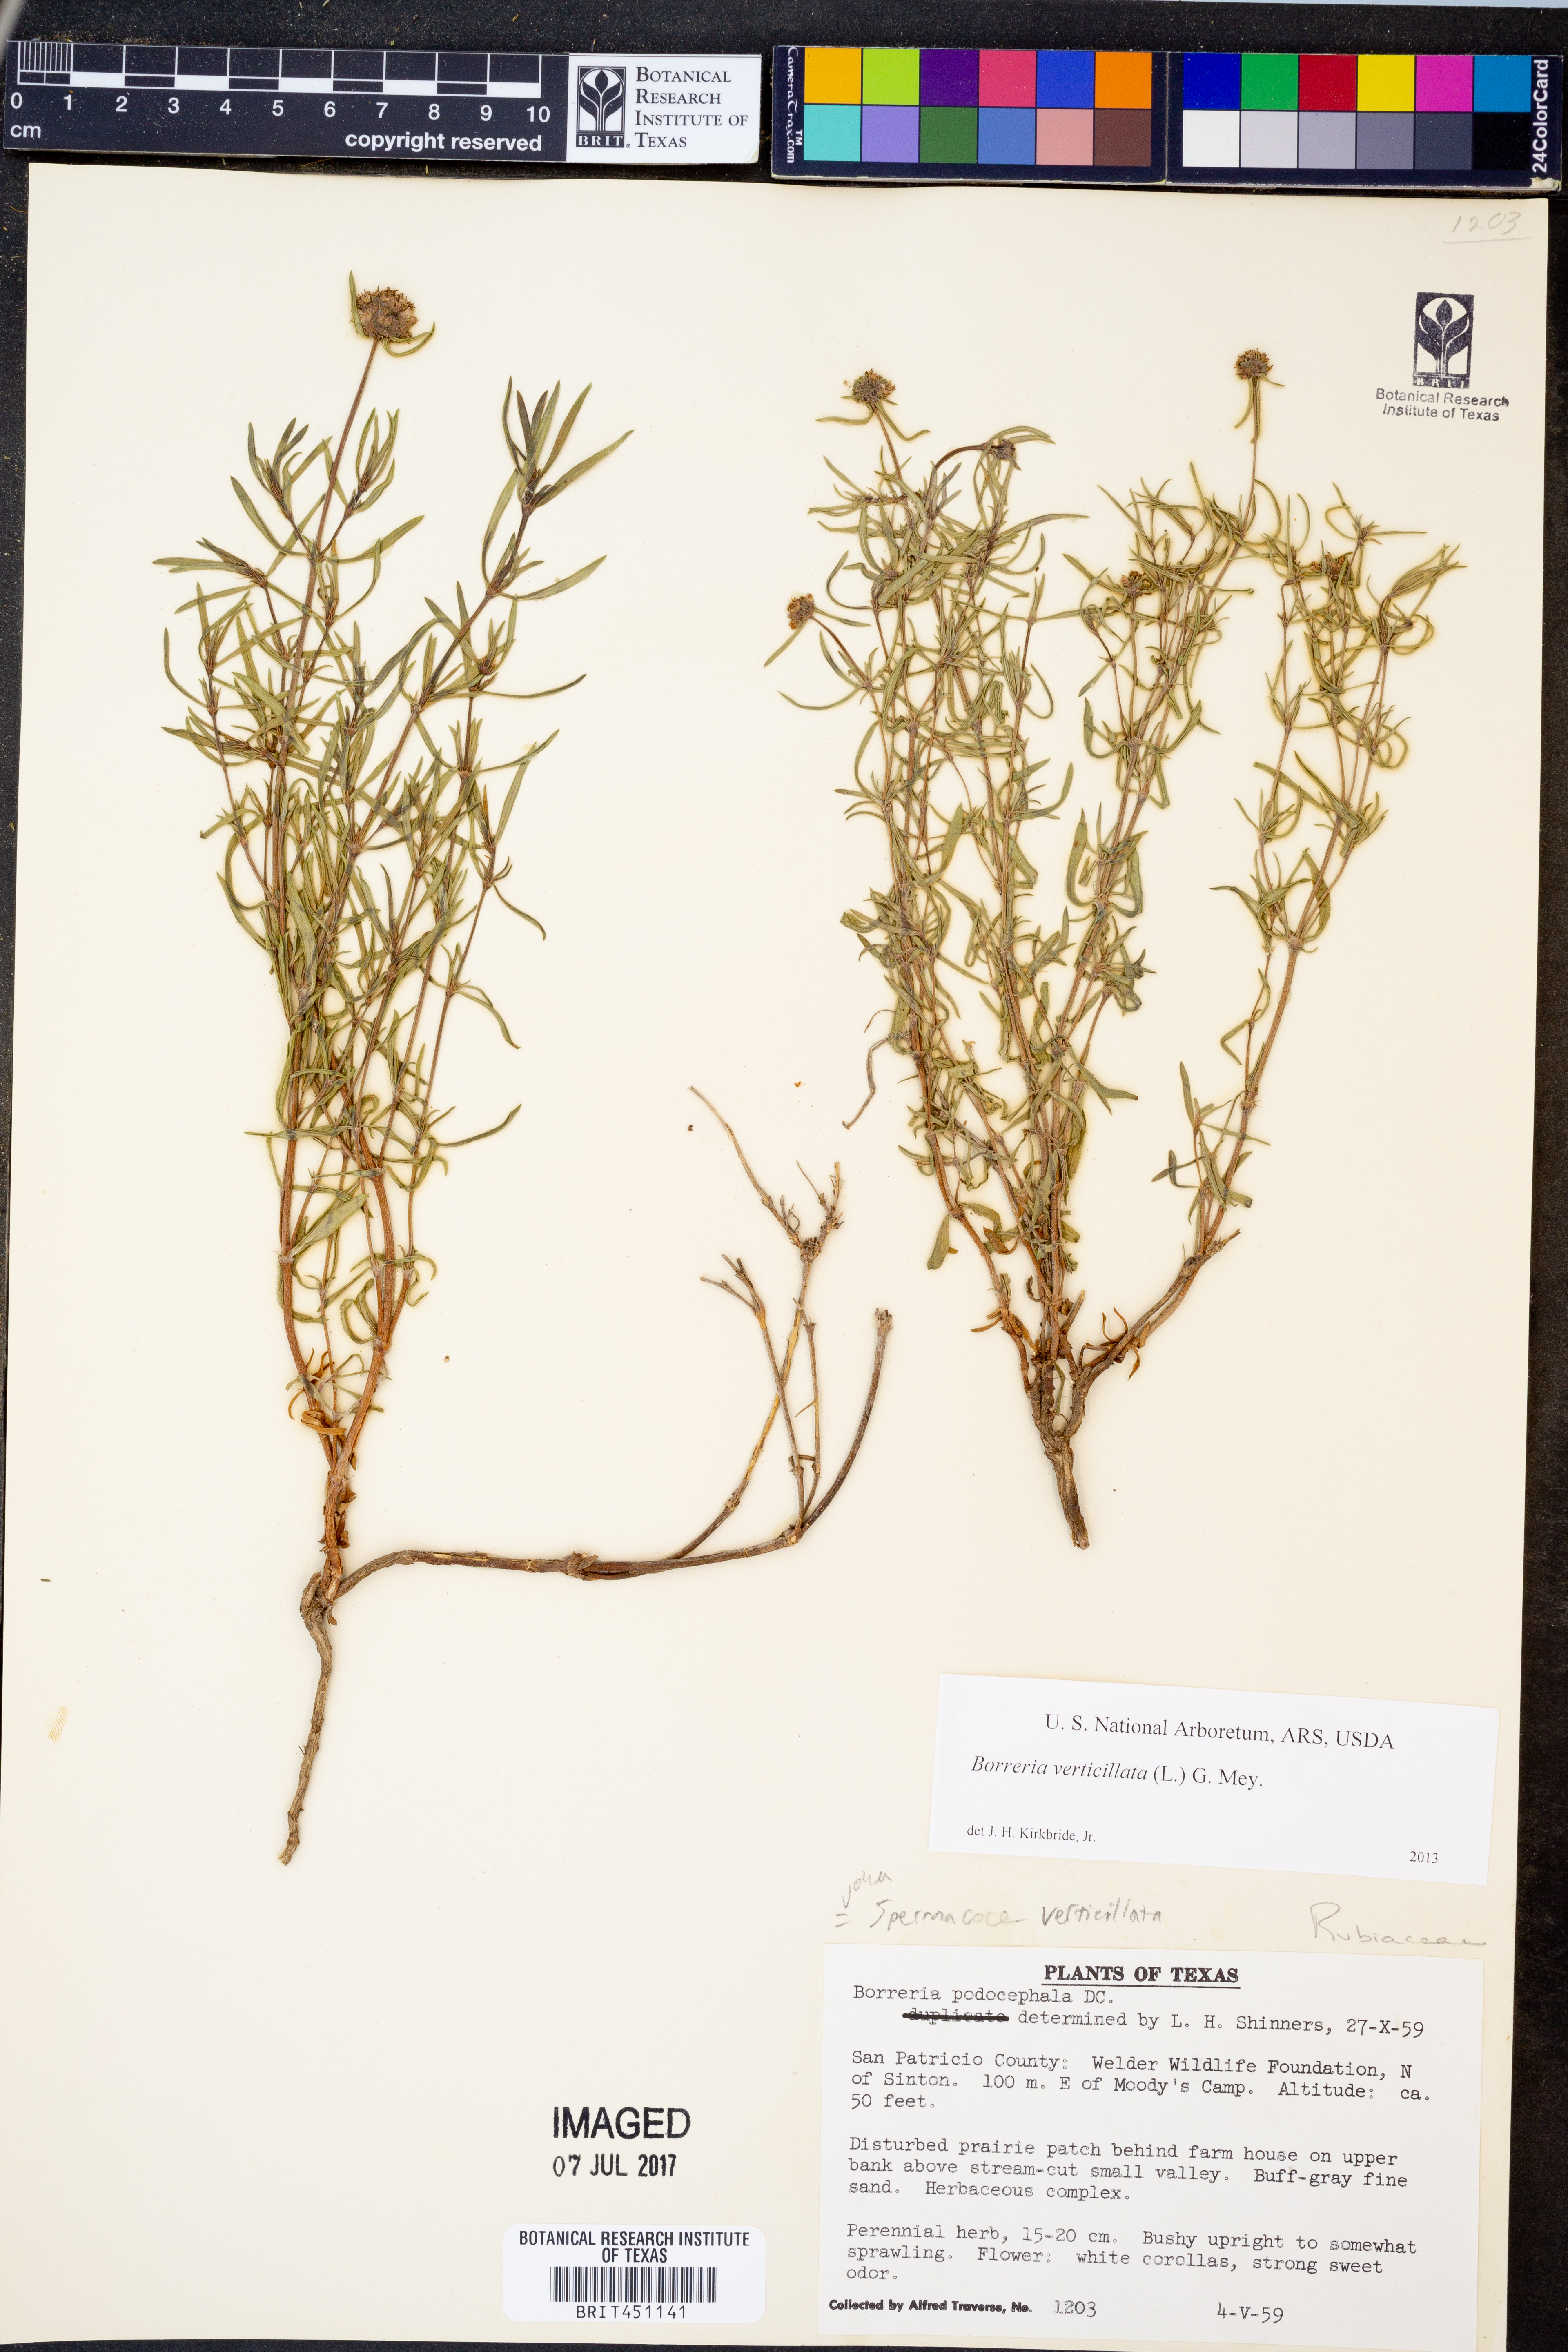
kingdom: Plantae
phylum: Tracheophyta
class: Magnoliopsida
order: Gentianales
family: Rubiaceae
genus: Spermacoce
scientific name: Spermacoce verticillata
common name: Shrubby false buttonweed
